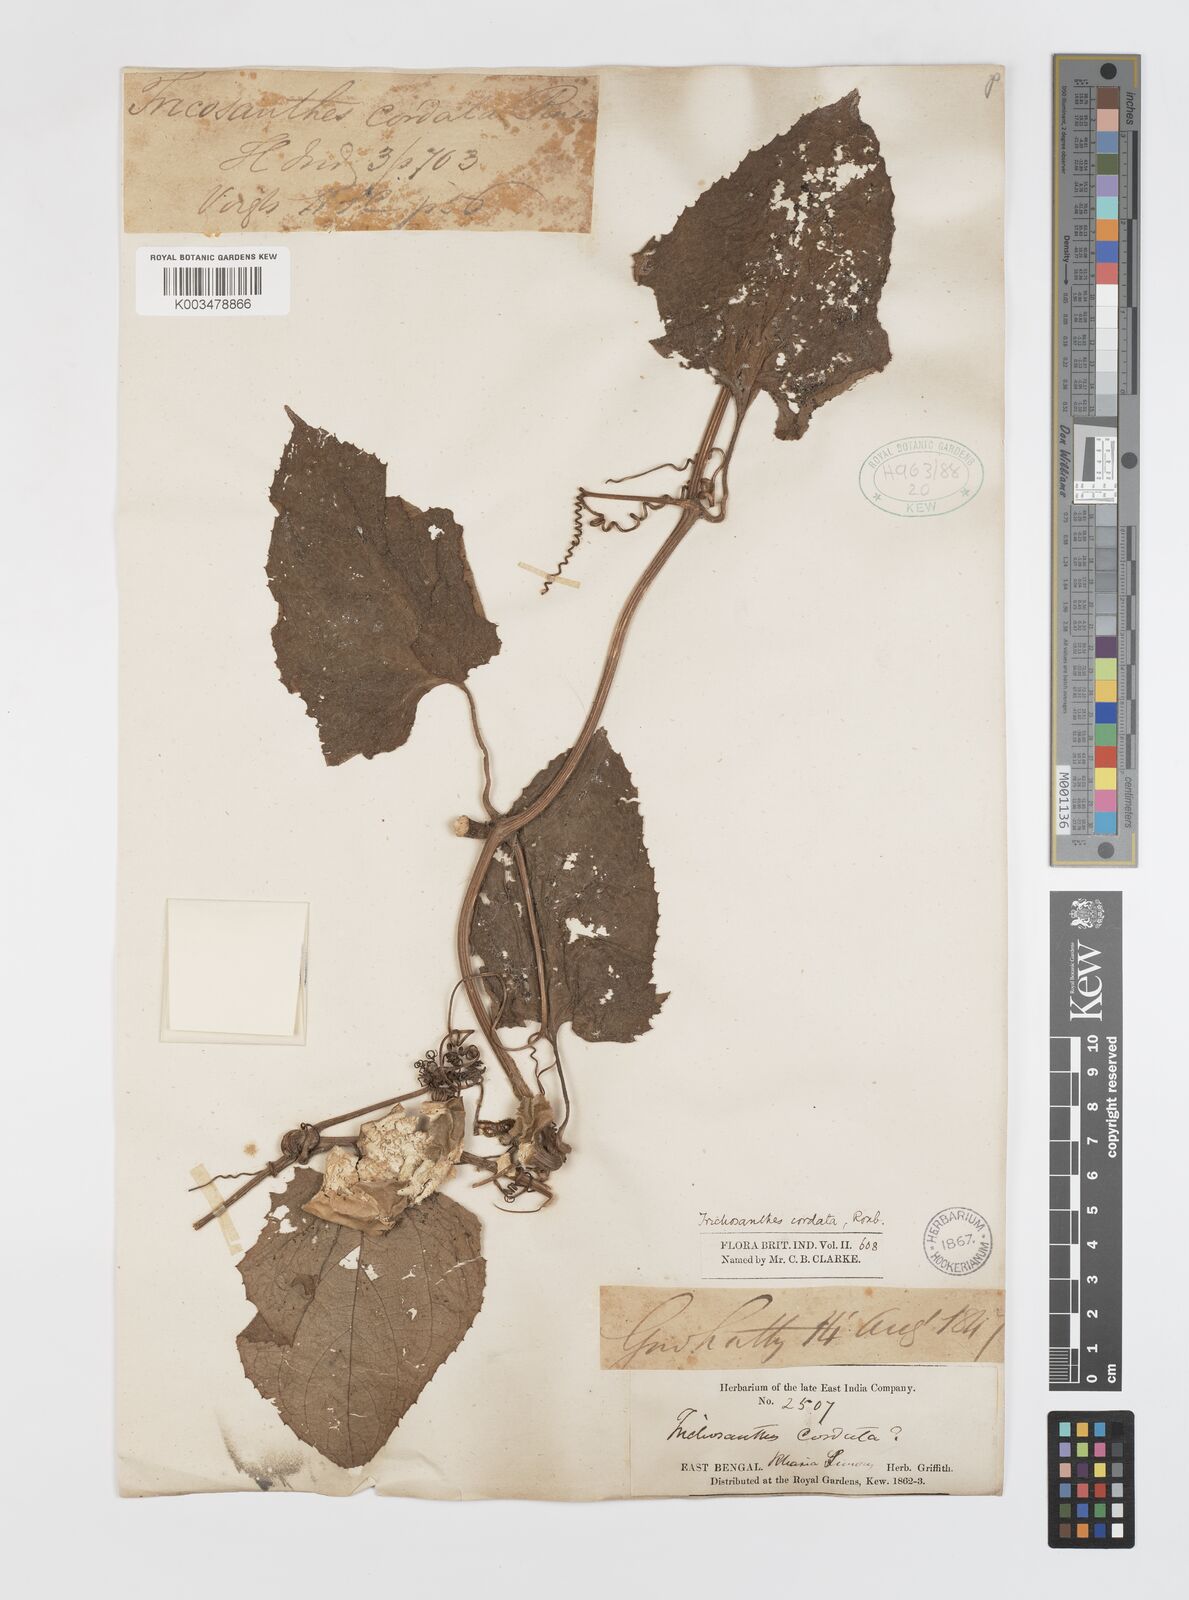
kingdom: Plantae
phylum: Tracheophyta
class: Magnoliopsida
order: Cucurbitales
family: Cucurbitaceae
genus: Trichosanthes
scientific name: Trichosanthes cordata
